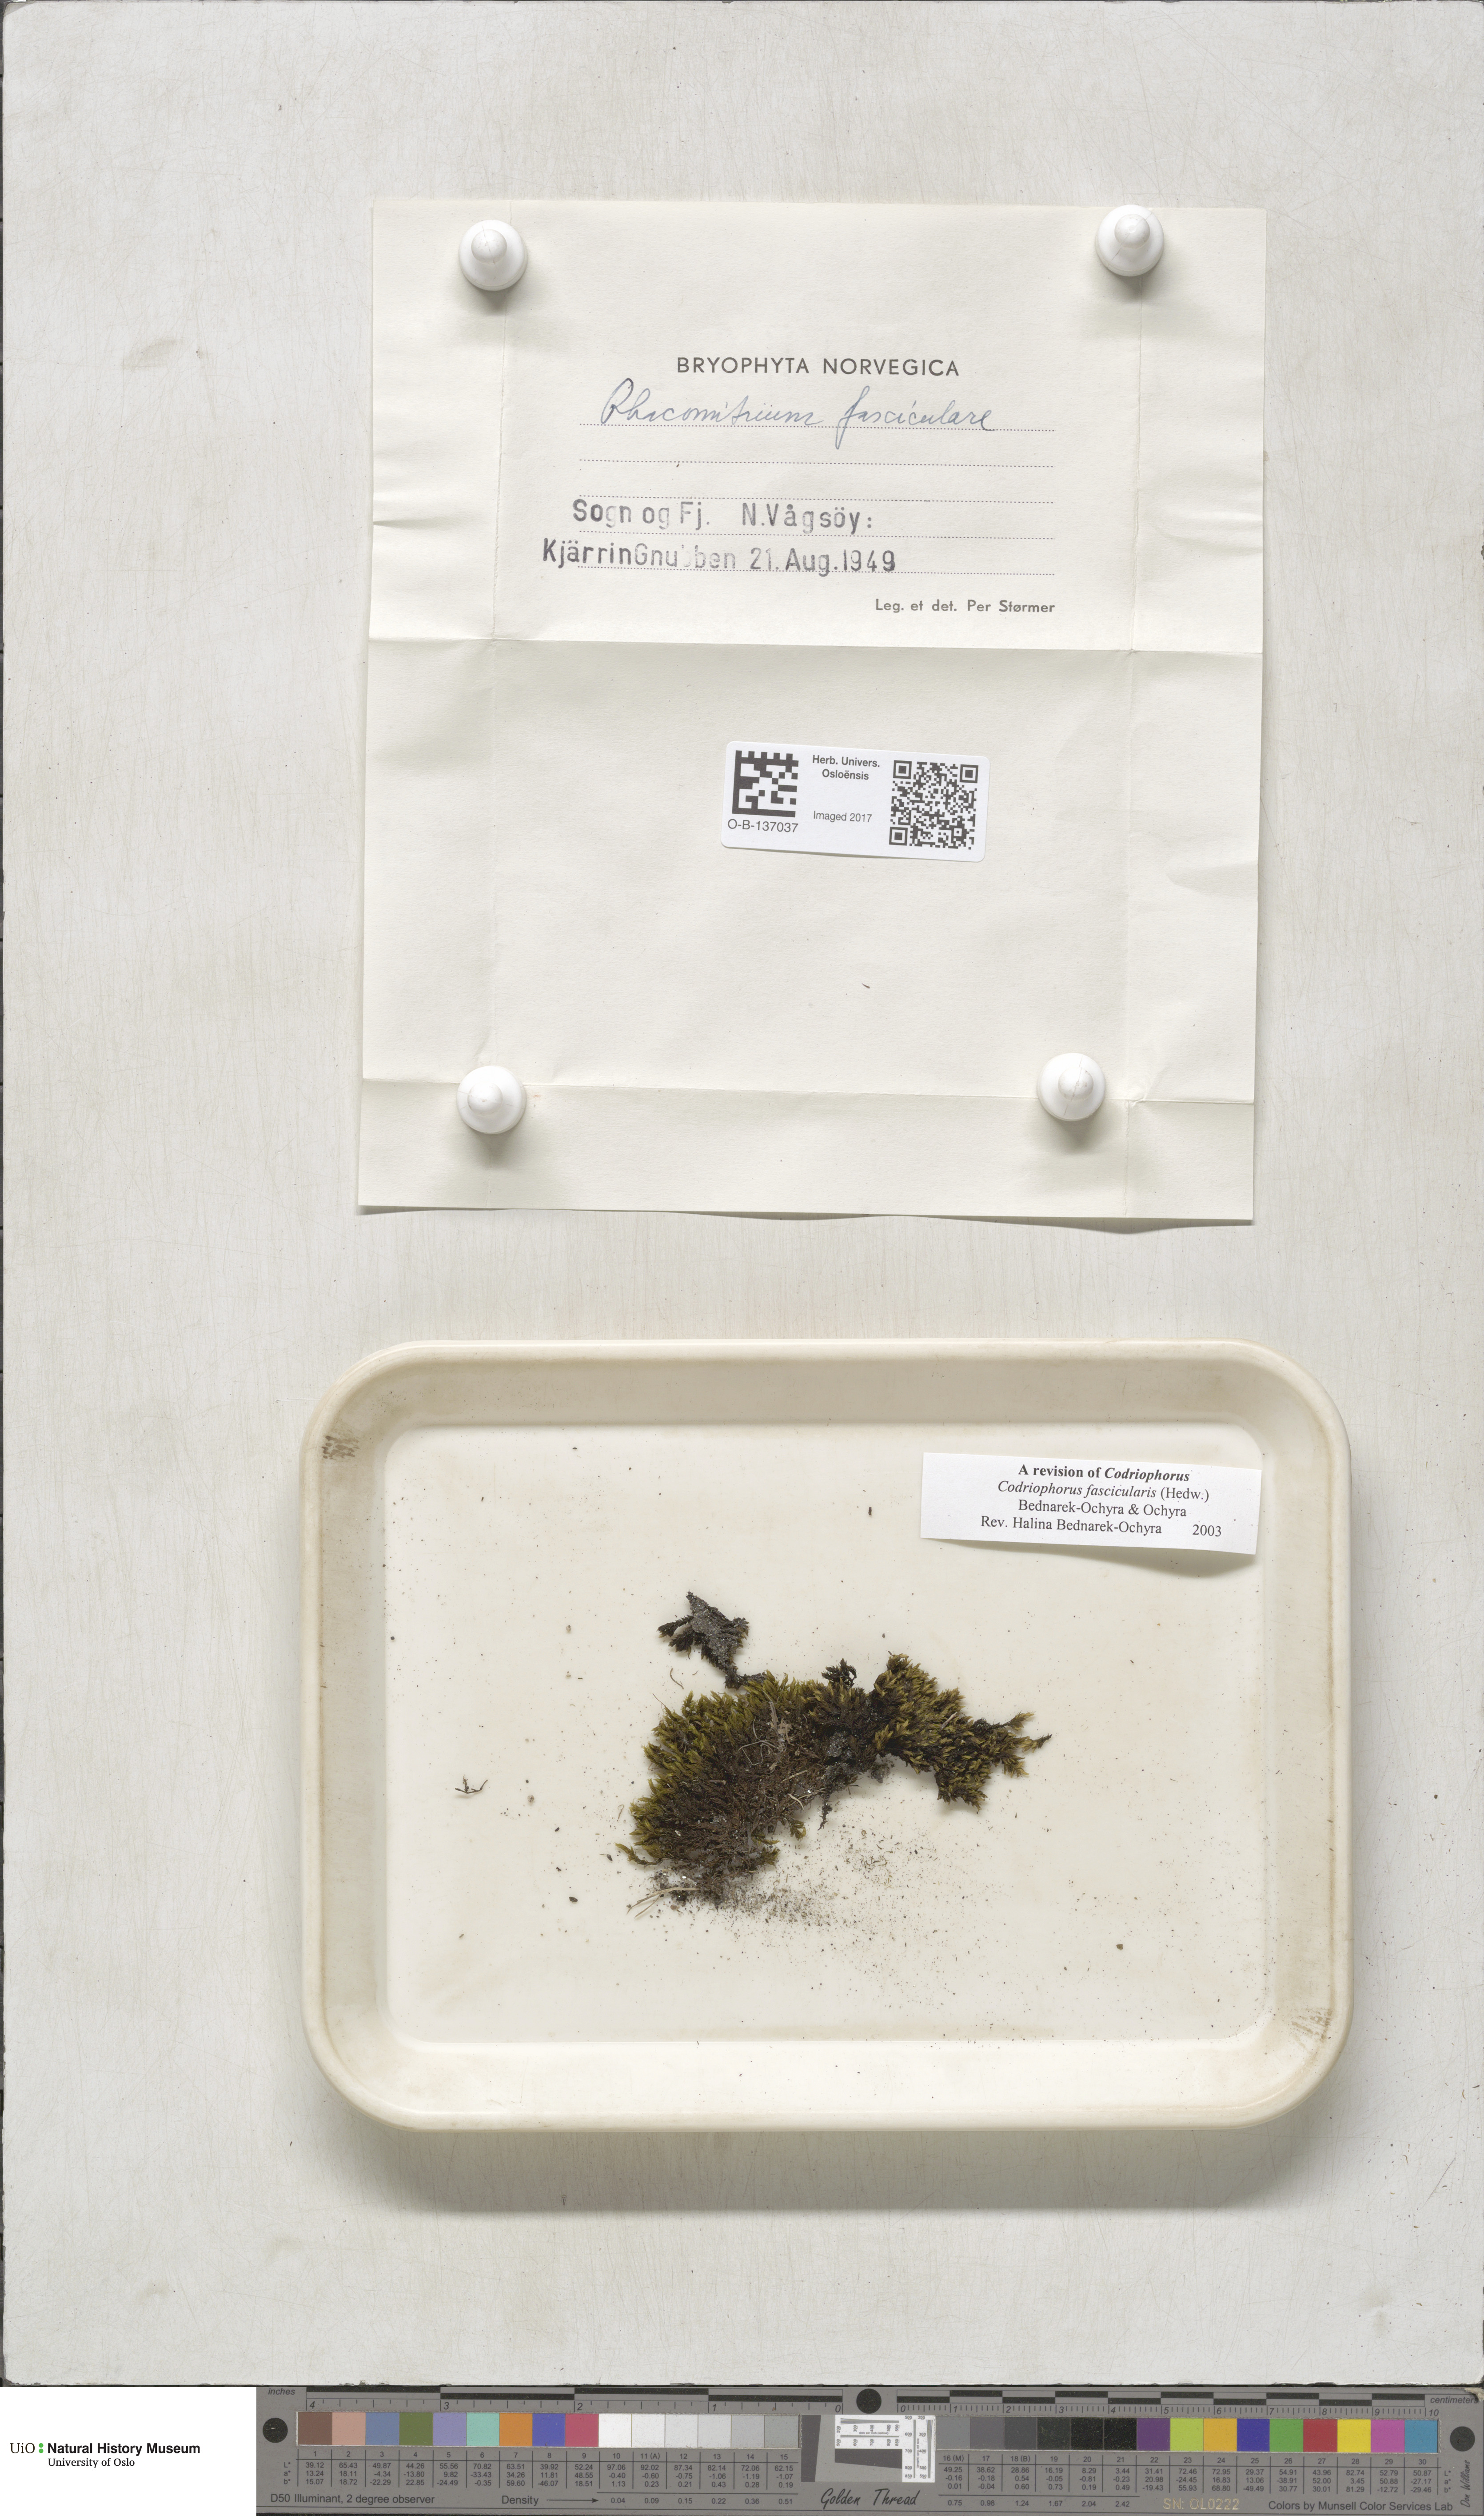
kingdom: Plantae
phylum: Bryophyta
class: Bryopsida
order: Grimmiales
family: Grimmiaceae
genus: Dilutineuron
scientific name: Dilutineuron fasciculare
